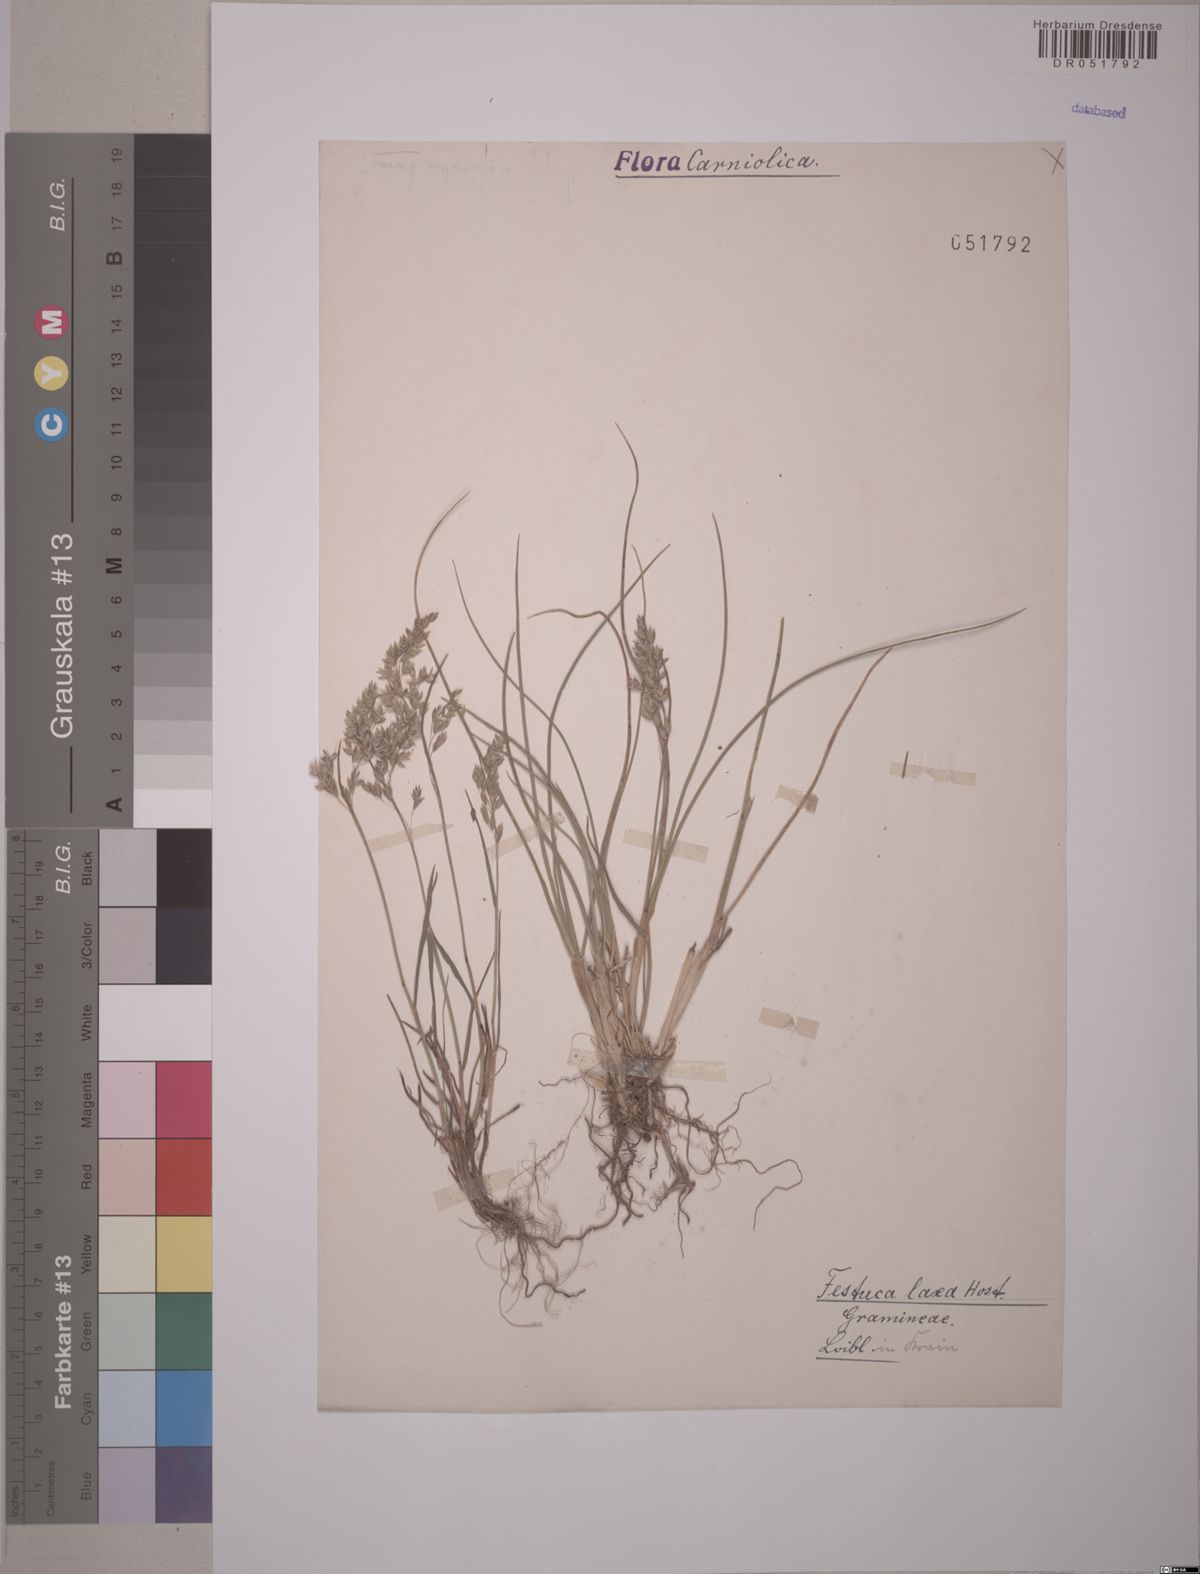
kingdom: Plantae
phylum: Tracheophyta
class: Liliopsida
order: Poales
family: Poaceae
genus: Festuca
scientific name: Festuca laxa
